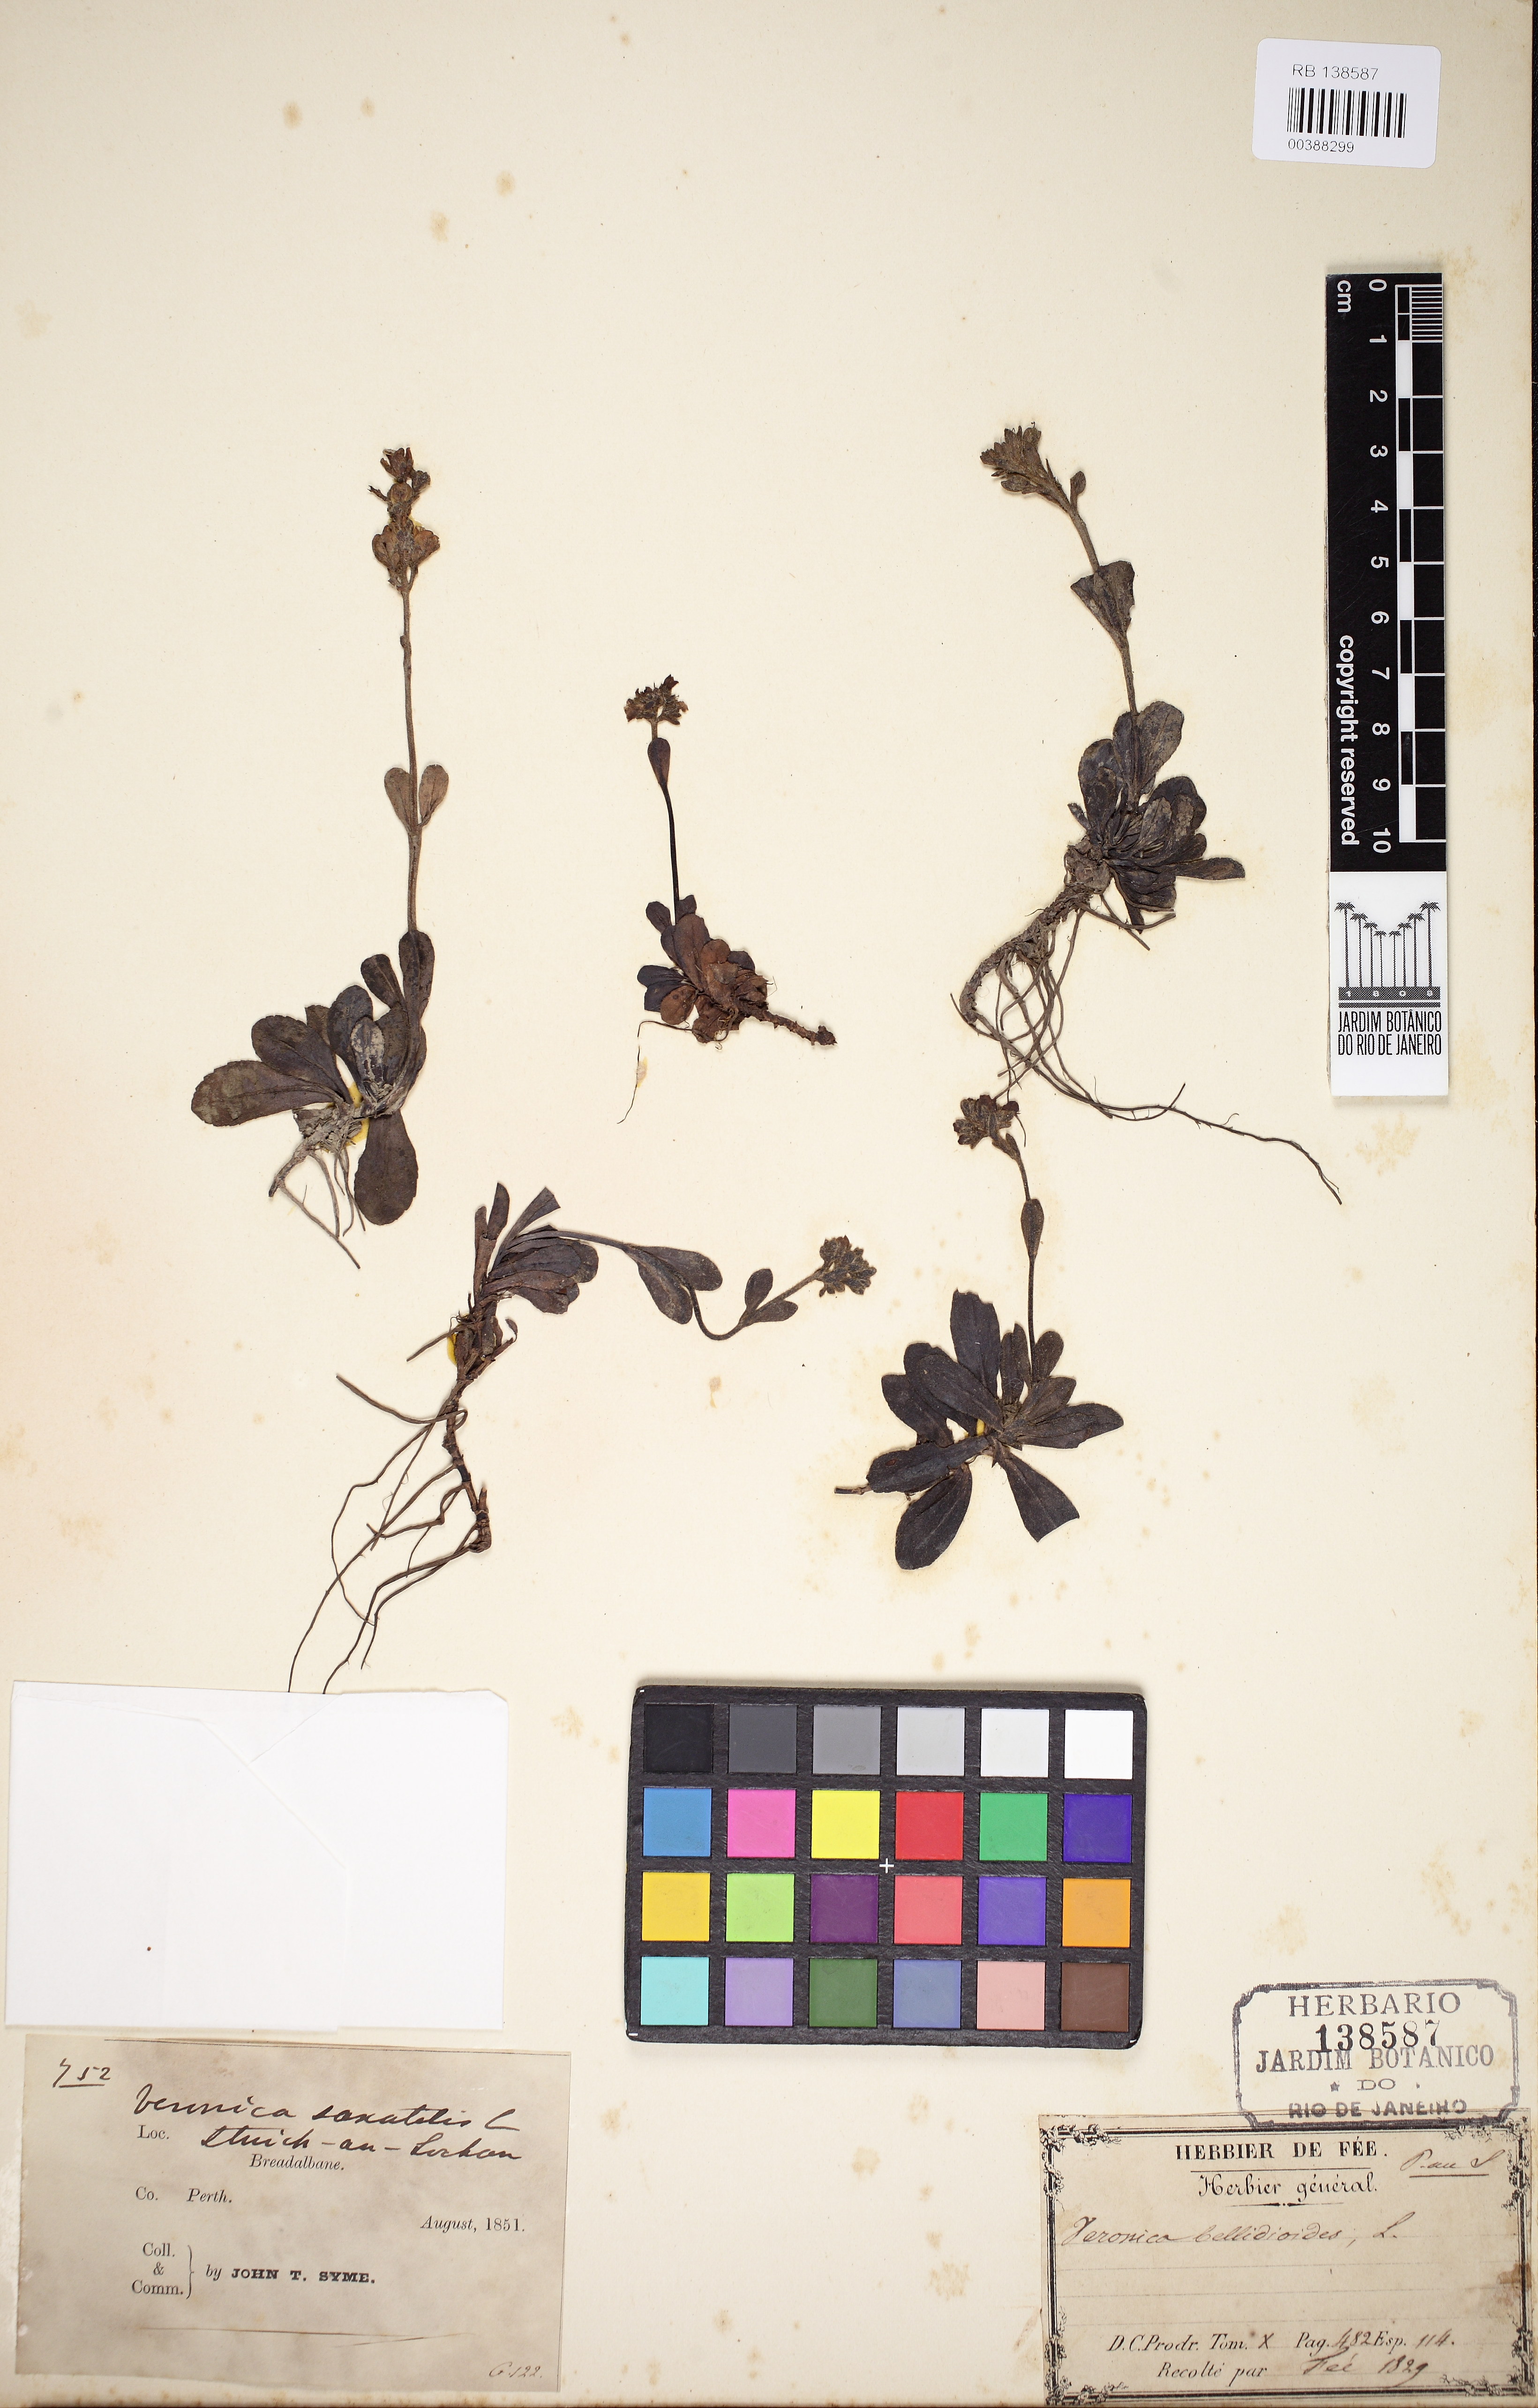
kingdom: Plantae
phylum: Tracheophyta
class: Magnoliopsida
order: Lamiales
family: Plantaginaceae
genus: Veronica
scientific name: Veronica bellidioides
